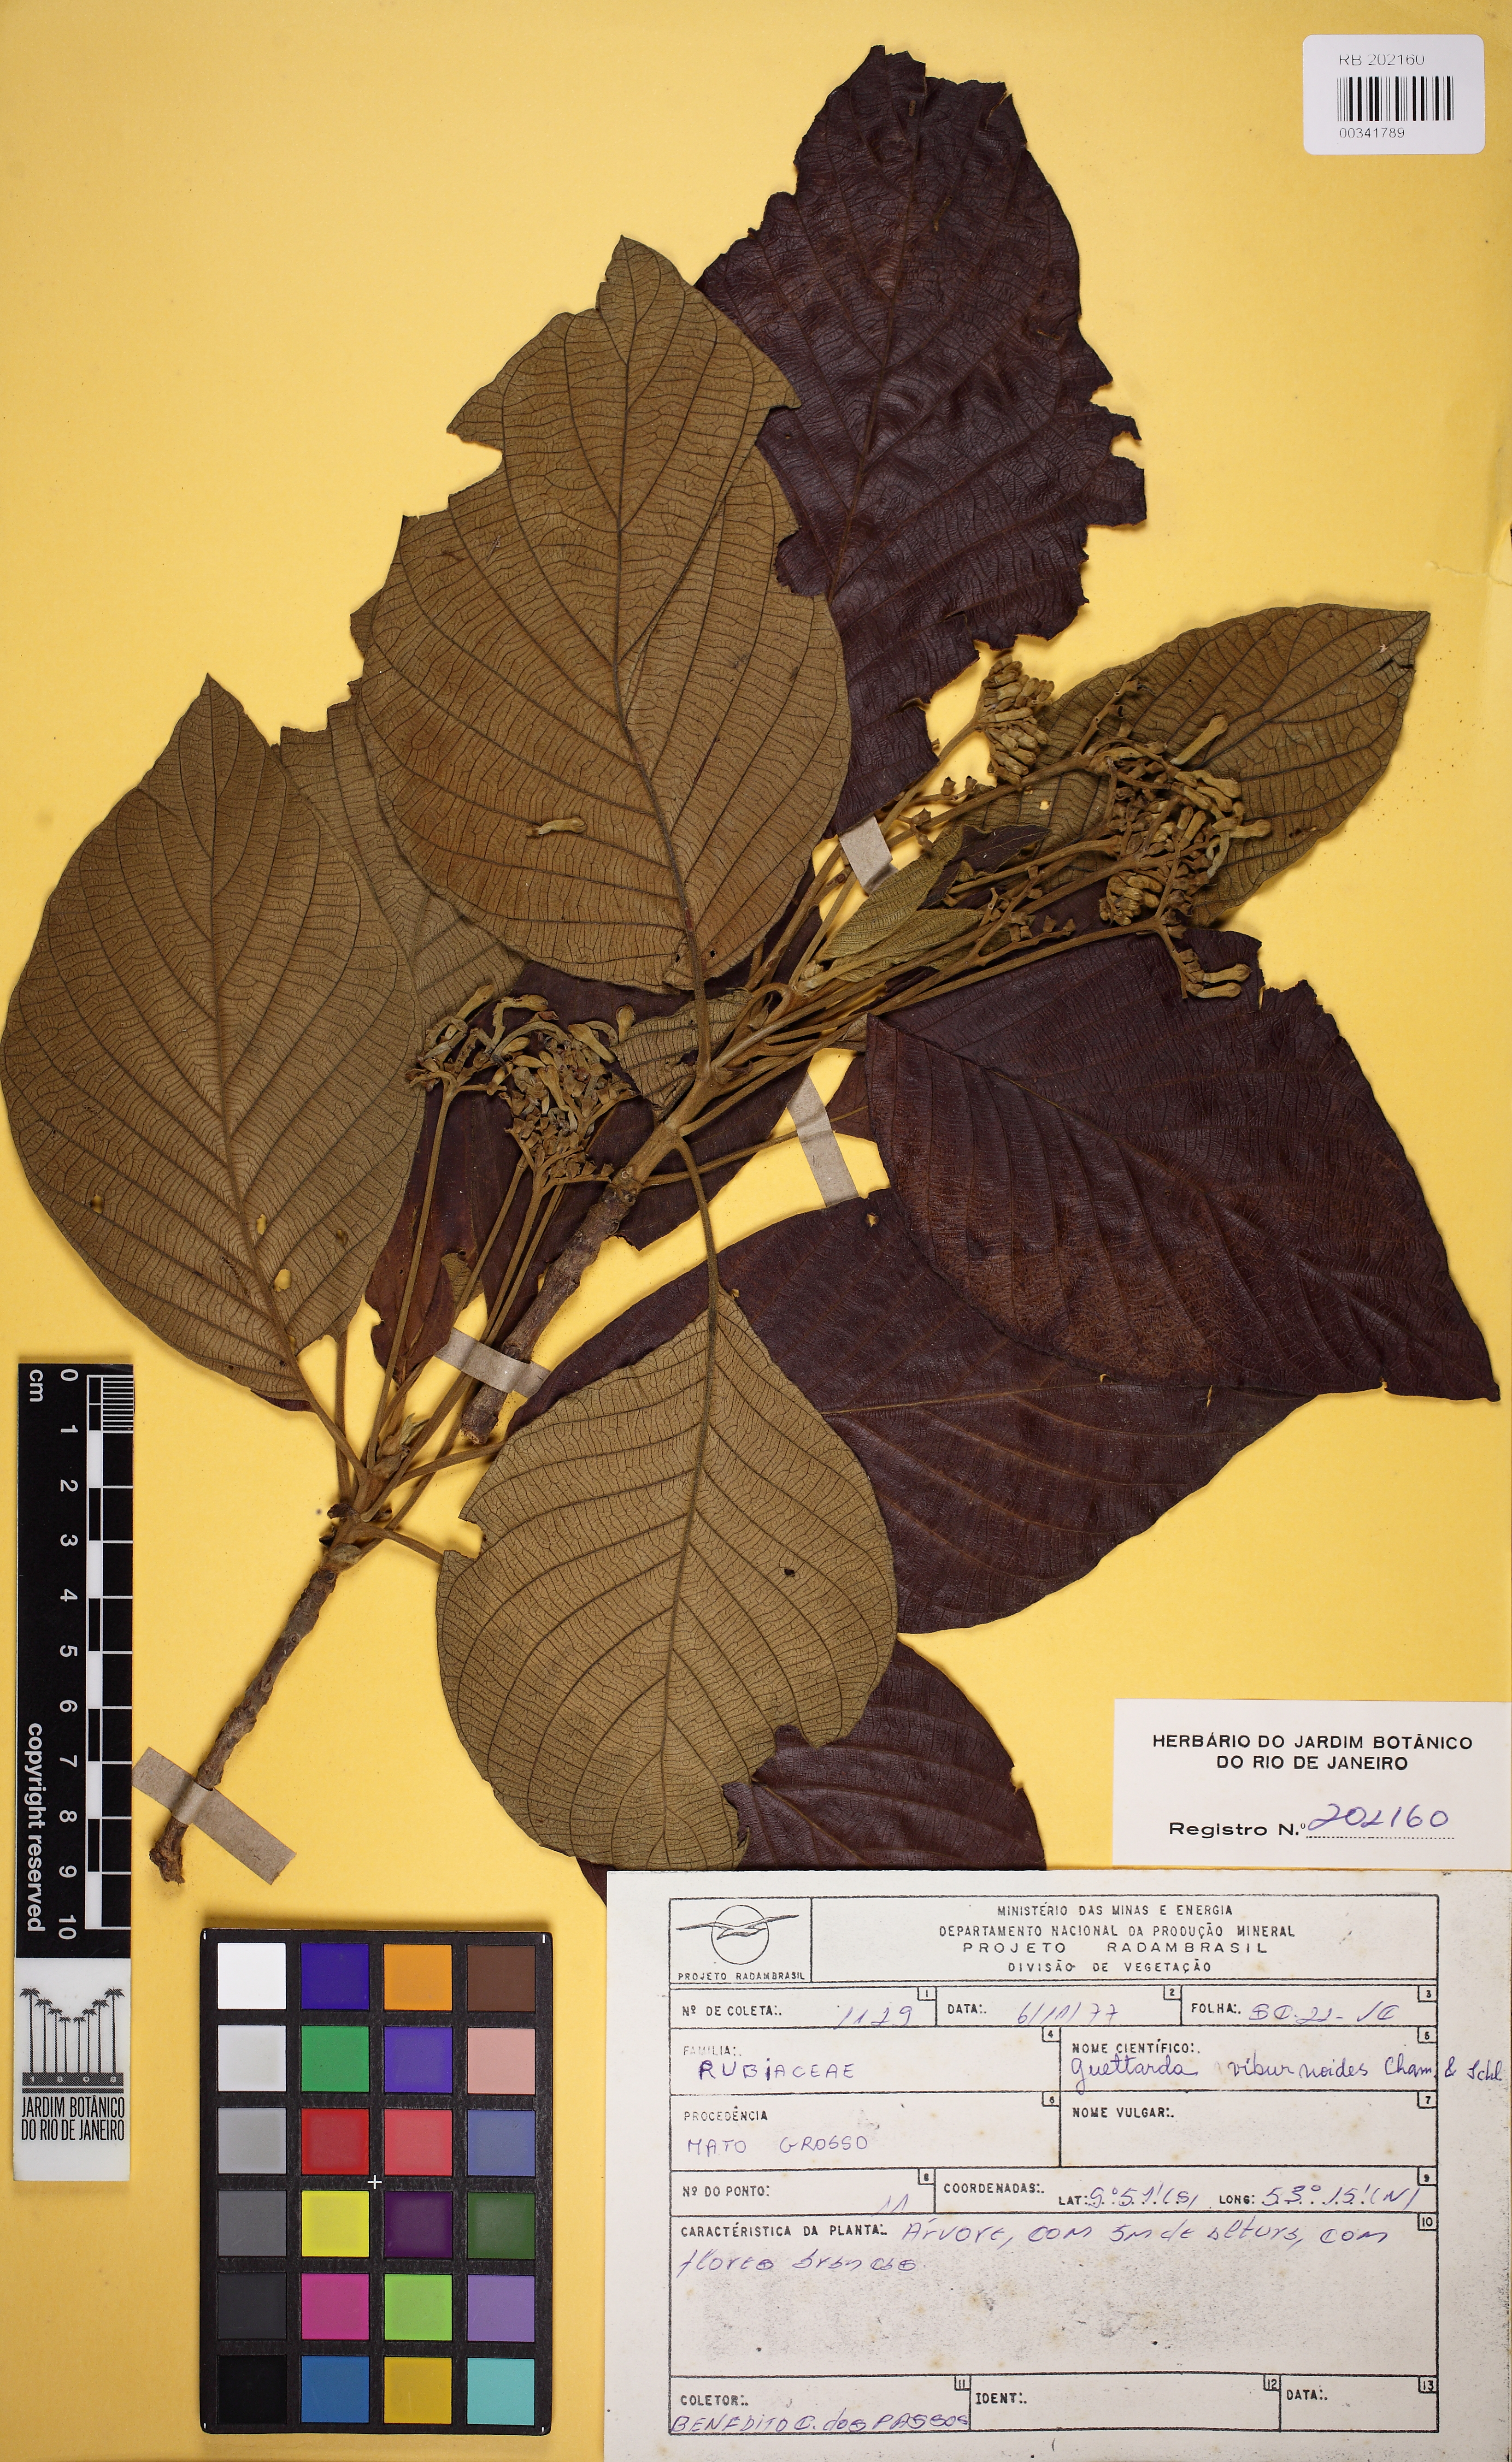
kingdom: Plantae
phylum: Tracheophyta
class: Magnoliopsida
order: Gentianales
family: Rubiaceae
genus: Guettarda
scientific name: Guettarda viburnoides
